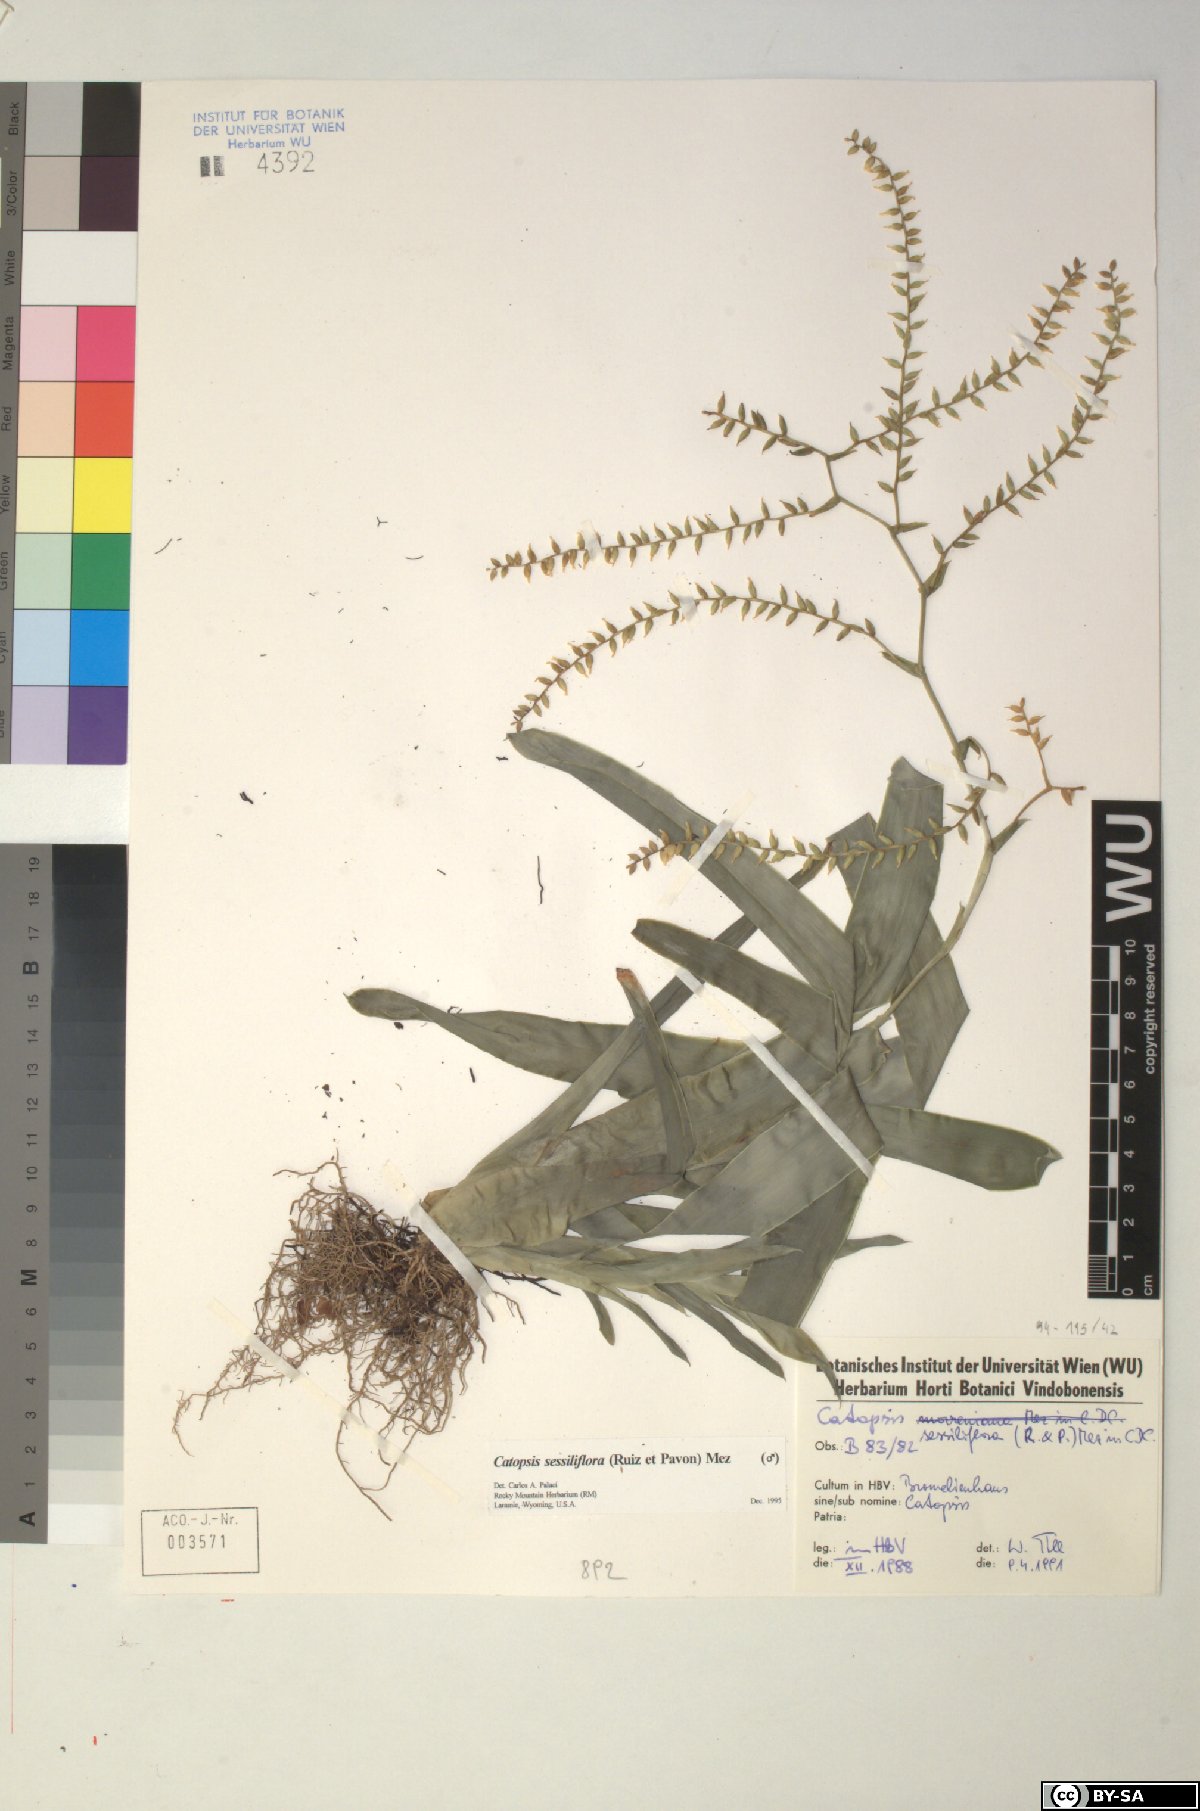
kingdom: Plantae
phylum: Tracheophyta
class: Liliopsida
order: Poales
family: Bromeliaceae
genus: Catopsis
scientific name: Catopsis sessiliflora
